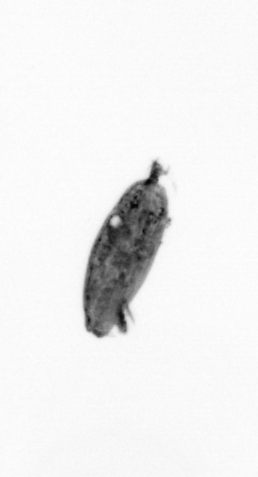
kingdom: Animalia
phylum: Arthropoda
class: Maxillopoda
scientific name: Maxillopoda
